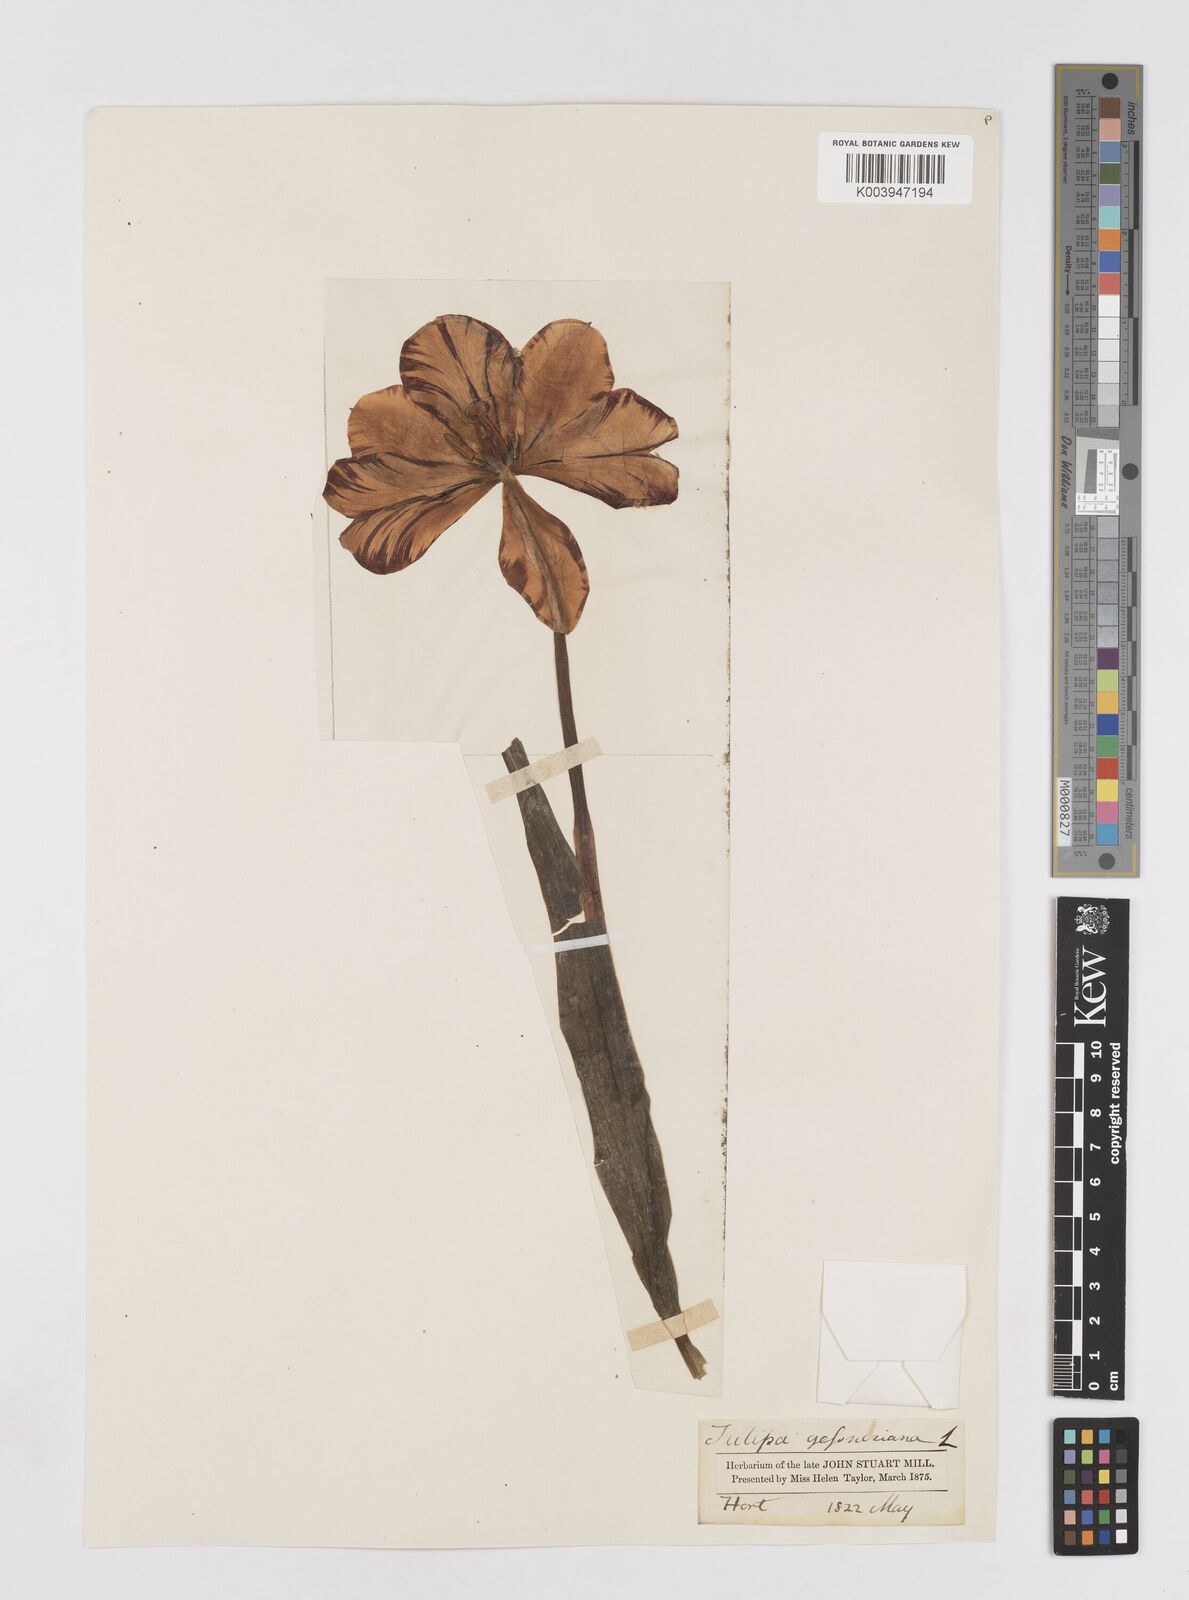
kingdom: Plantae
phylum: Tracheophyta
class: Liliopsida
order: Liliales
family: Liliaceae
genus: Tulipa
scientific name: Tulipa gesneriana
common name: Garden tulip
